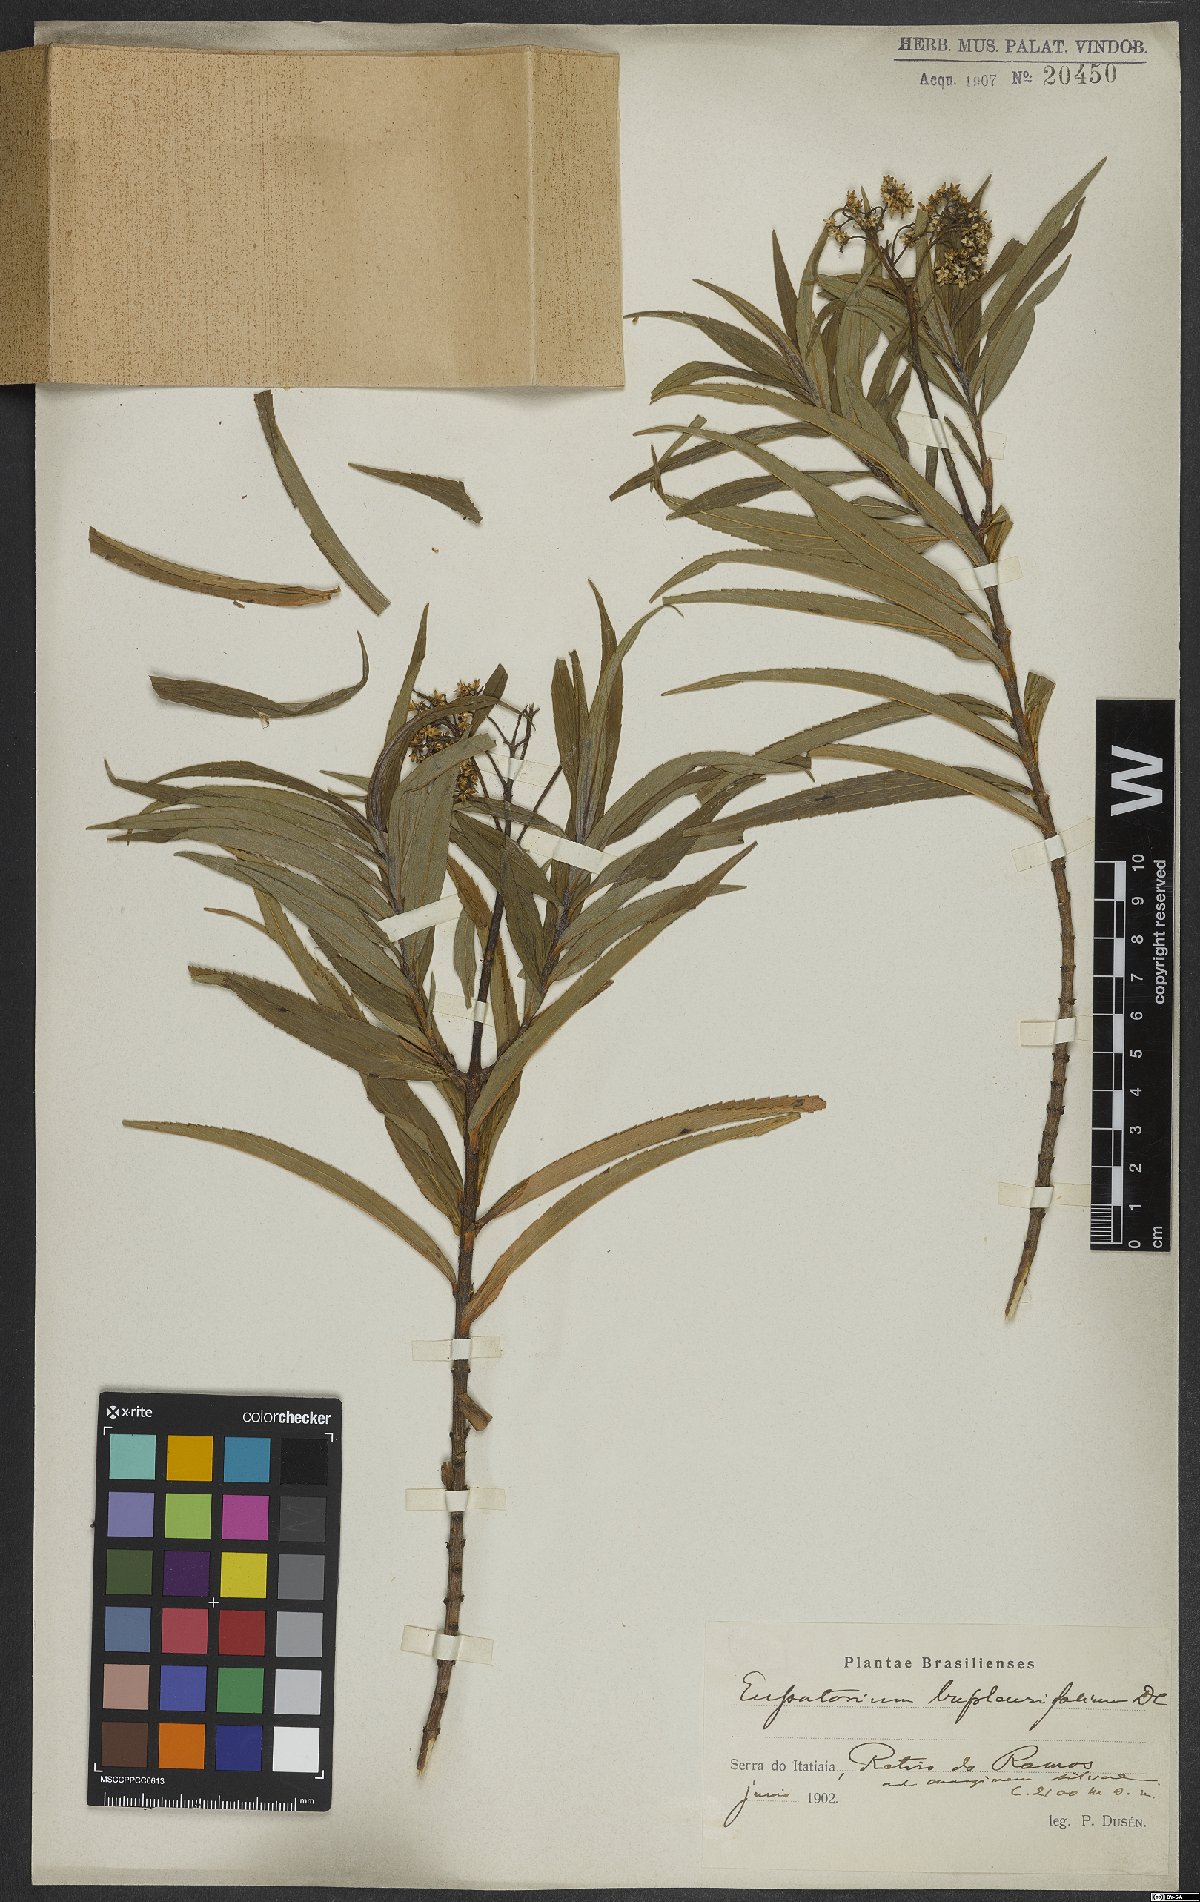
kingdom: Plantae
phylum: Tracheophyta
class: Magnoliopsida
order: Asterales
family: Asteraceae
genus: Campovassouria
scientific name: Campovassouria cruciata
